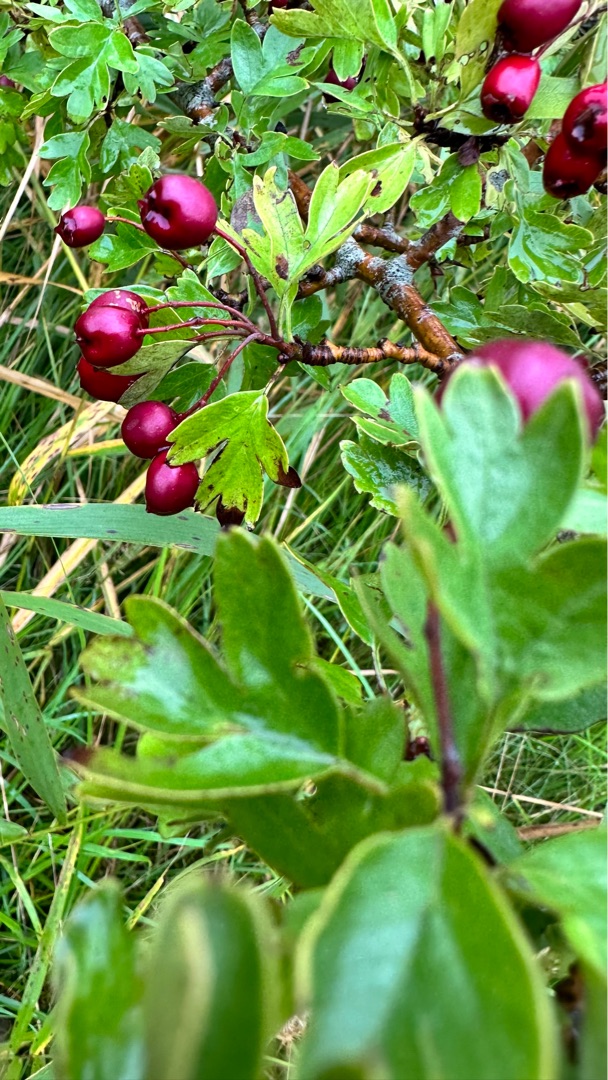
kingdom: Plantae
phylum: Tracheophyta
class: Magnoliopsida
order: Rosales
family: Rosaceae
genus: Crataegus
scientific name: Crataegus monogyna
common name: Engriflet hvidtjørn
